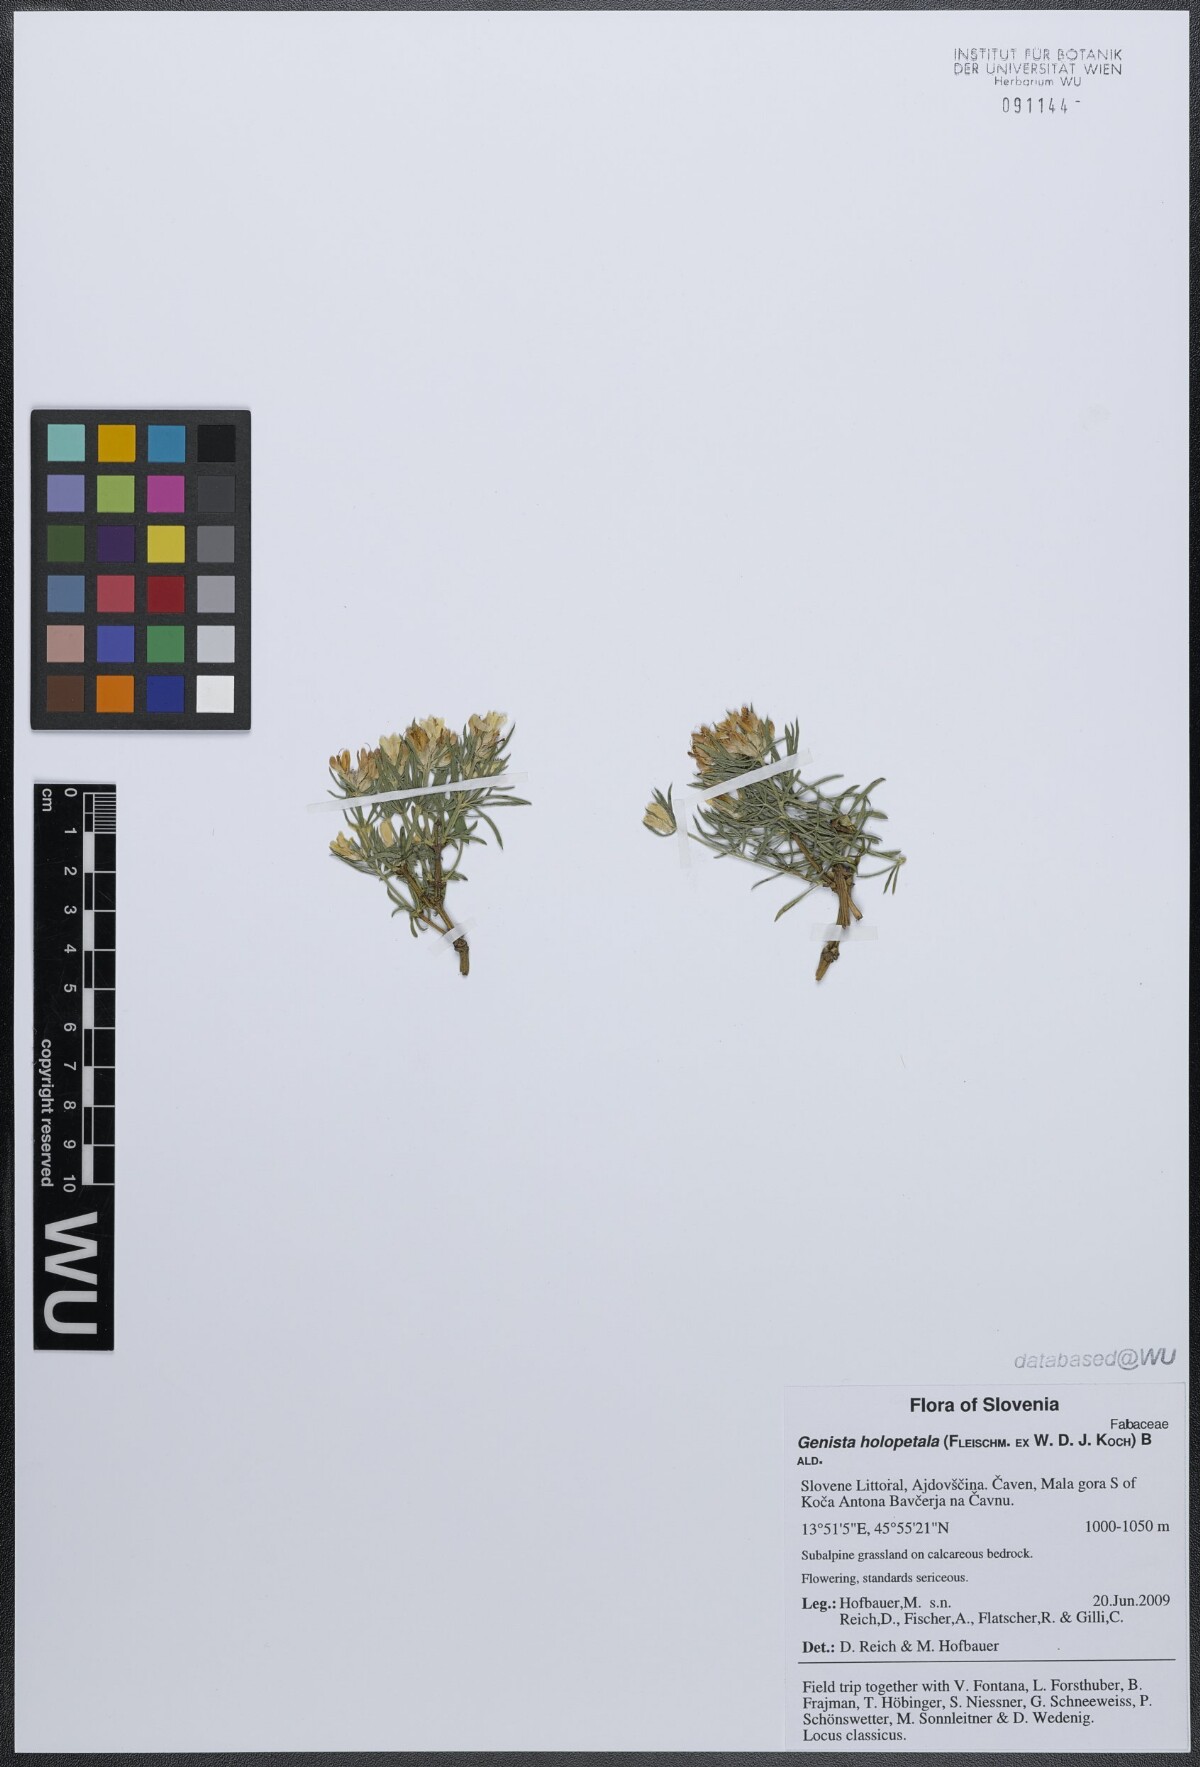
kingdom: Plantae
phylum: Tracheophyta
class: Magnoliopsida
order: Fabales
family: Fabaceae
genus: Genista
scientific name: Genista holopetala
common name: Entire-petalled gorse
